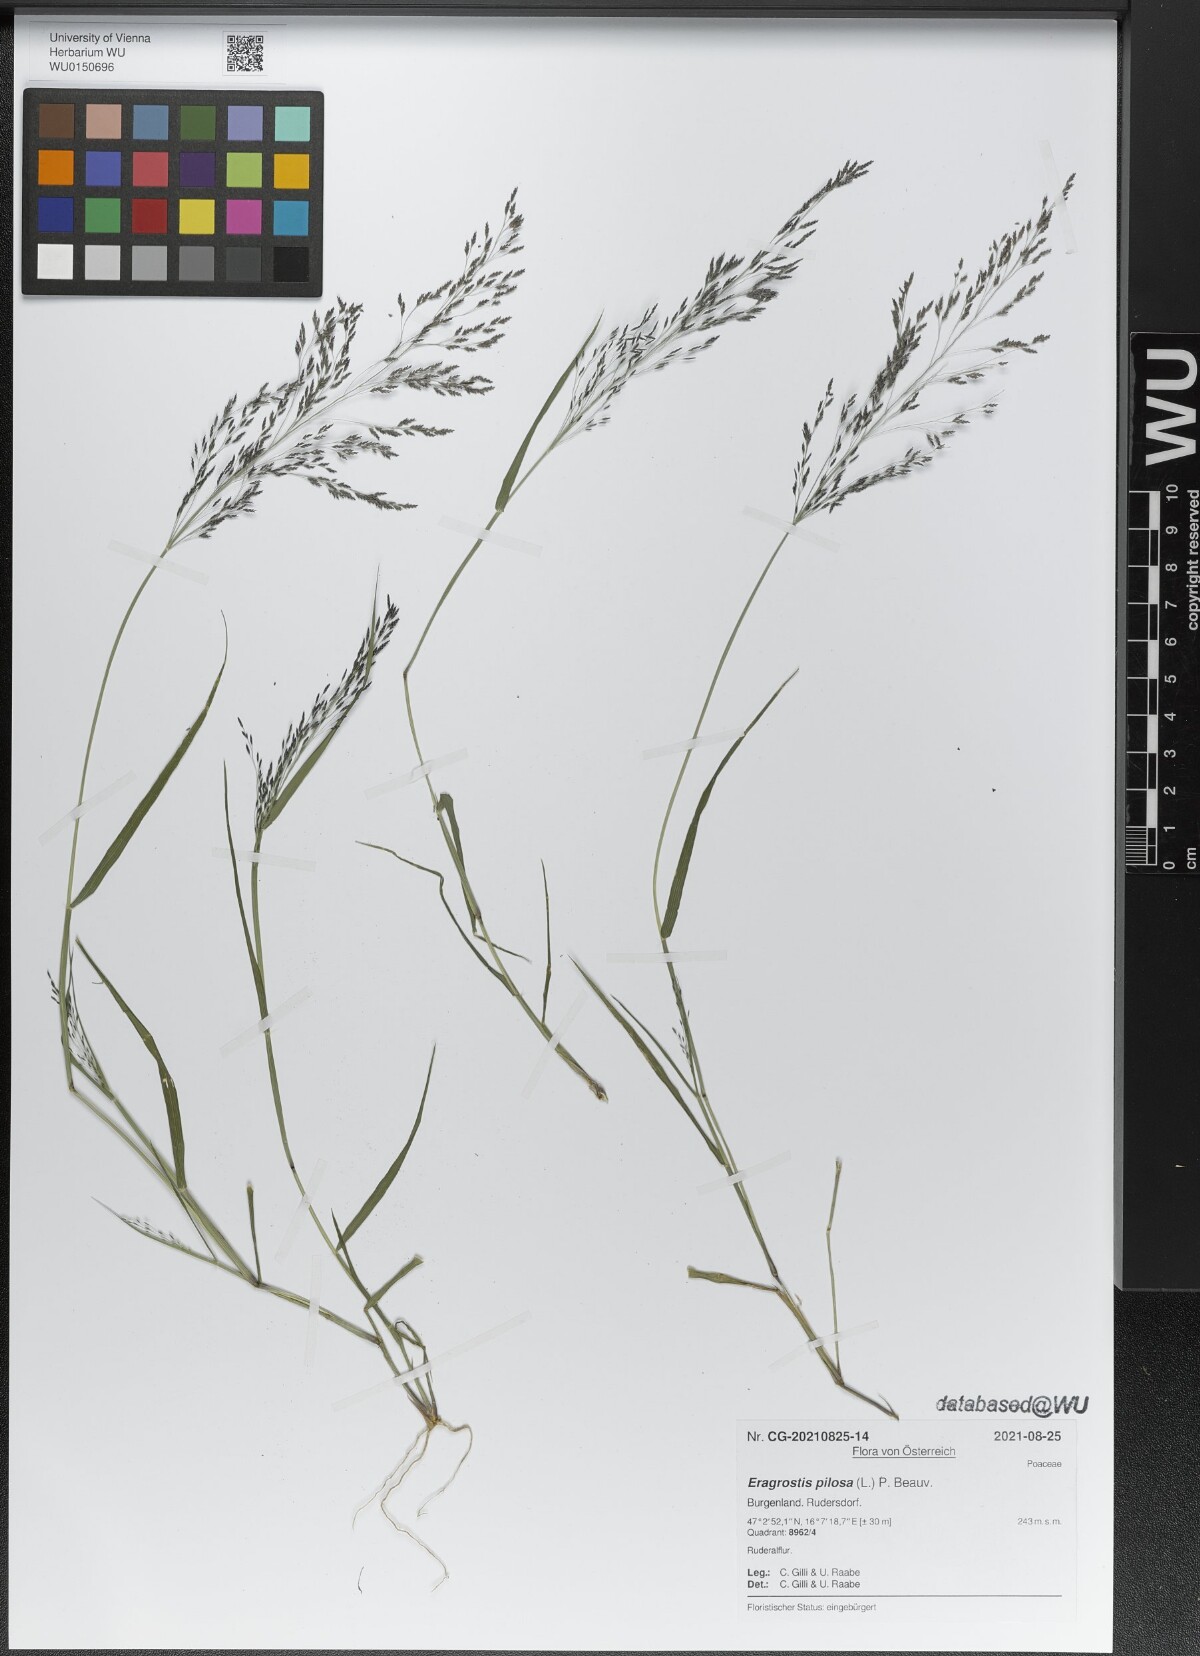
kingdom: Plantae
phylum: Tracheophyta
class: Liliopsida
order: Poales
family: Poaceae
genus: Eragrostis
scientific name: Eragrostis pilosa
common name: Indian lovegrass
